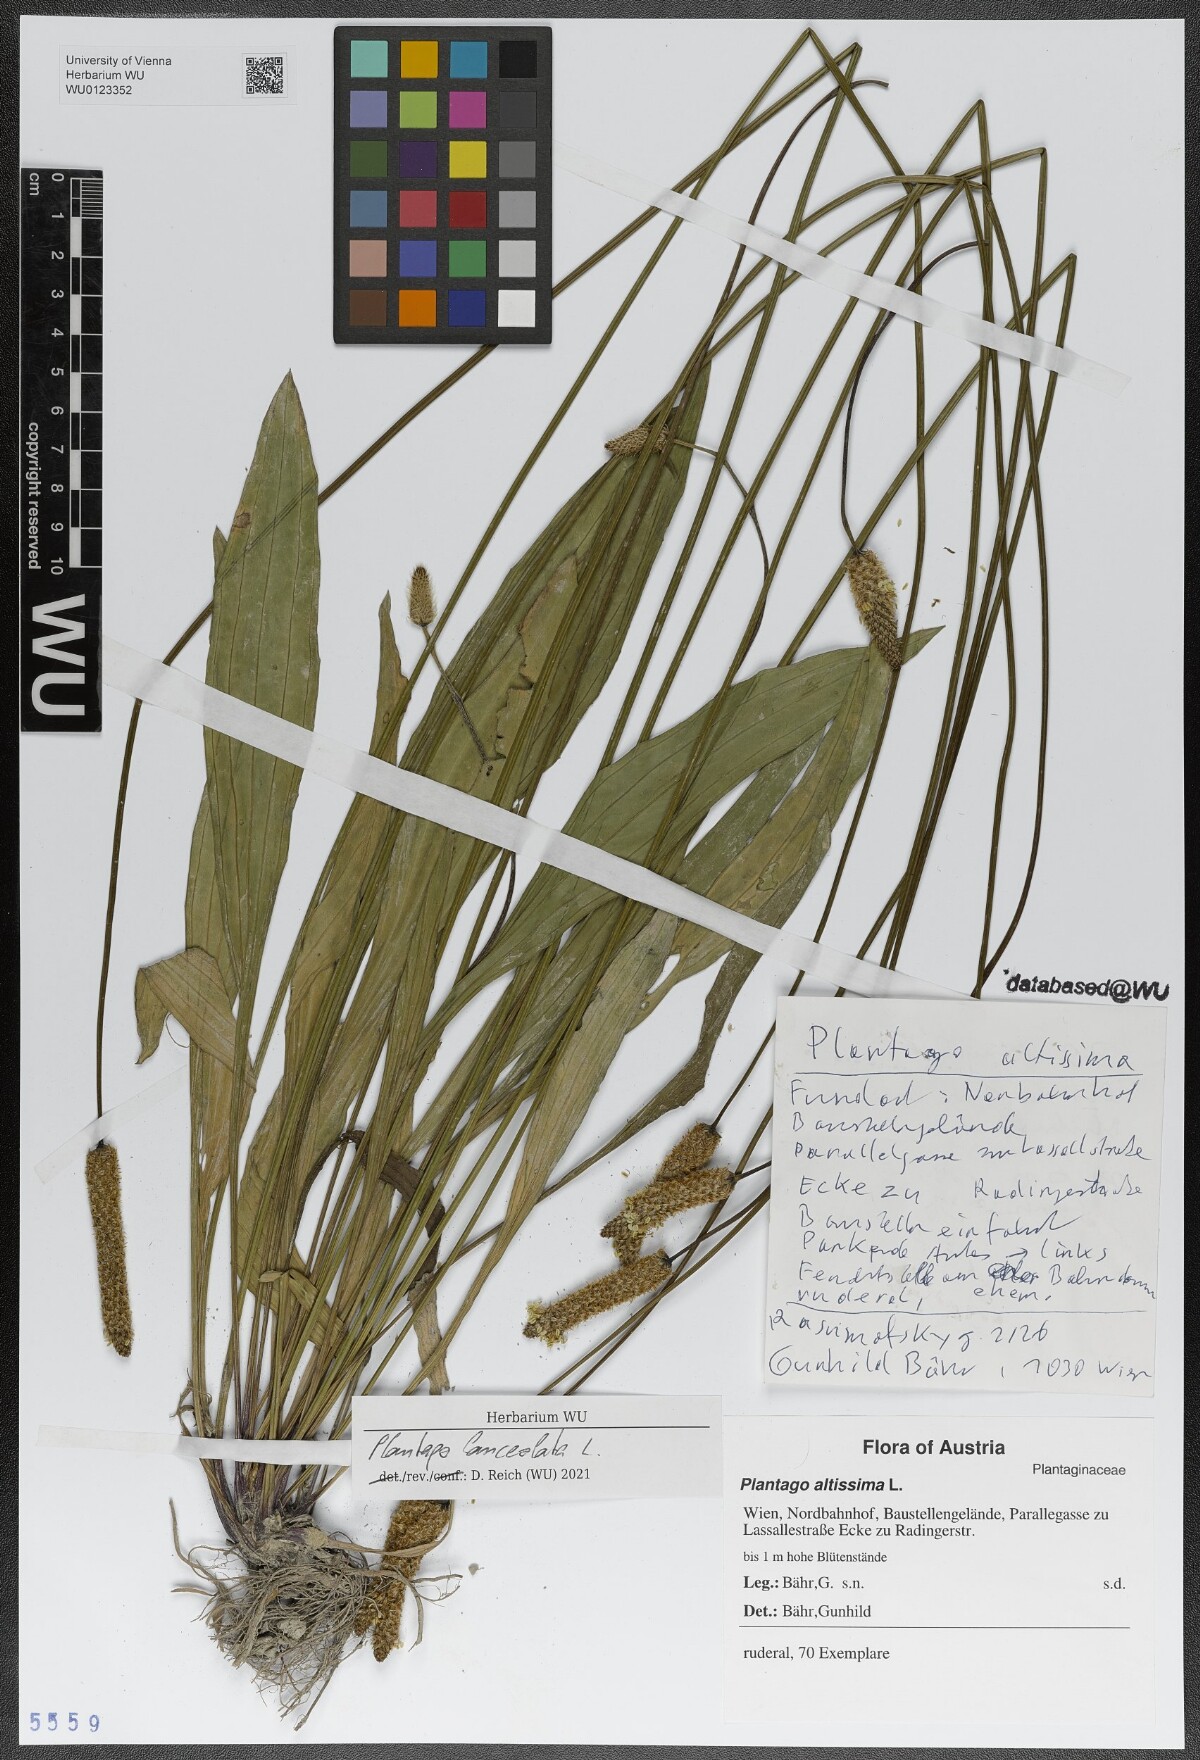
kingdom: Plantae
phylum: Tracheophyta
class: Magnoliopsida
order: Lamiales
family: Plantaginaceae
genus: Plantago
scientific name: Plantago lanceolata
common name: Ribwort plantain
